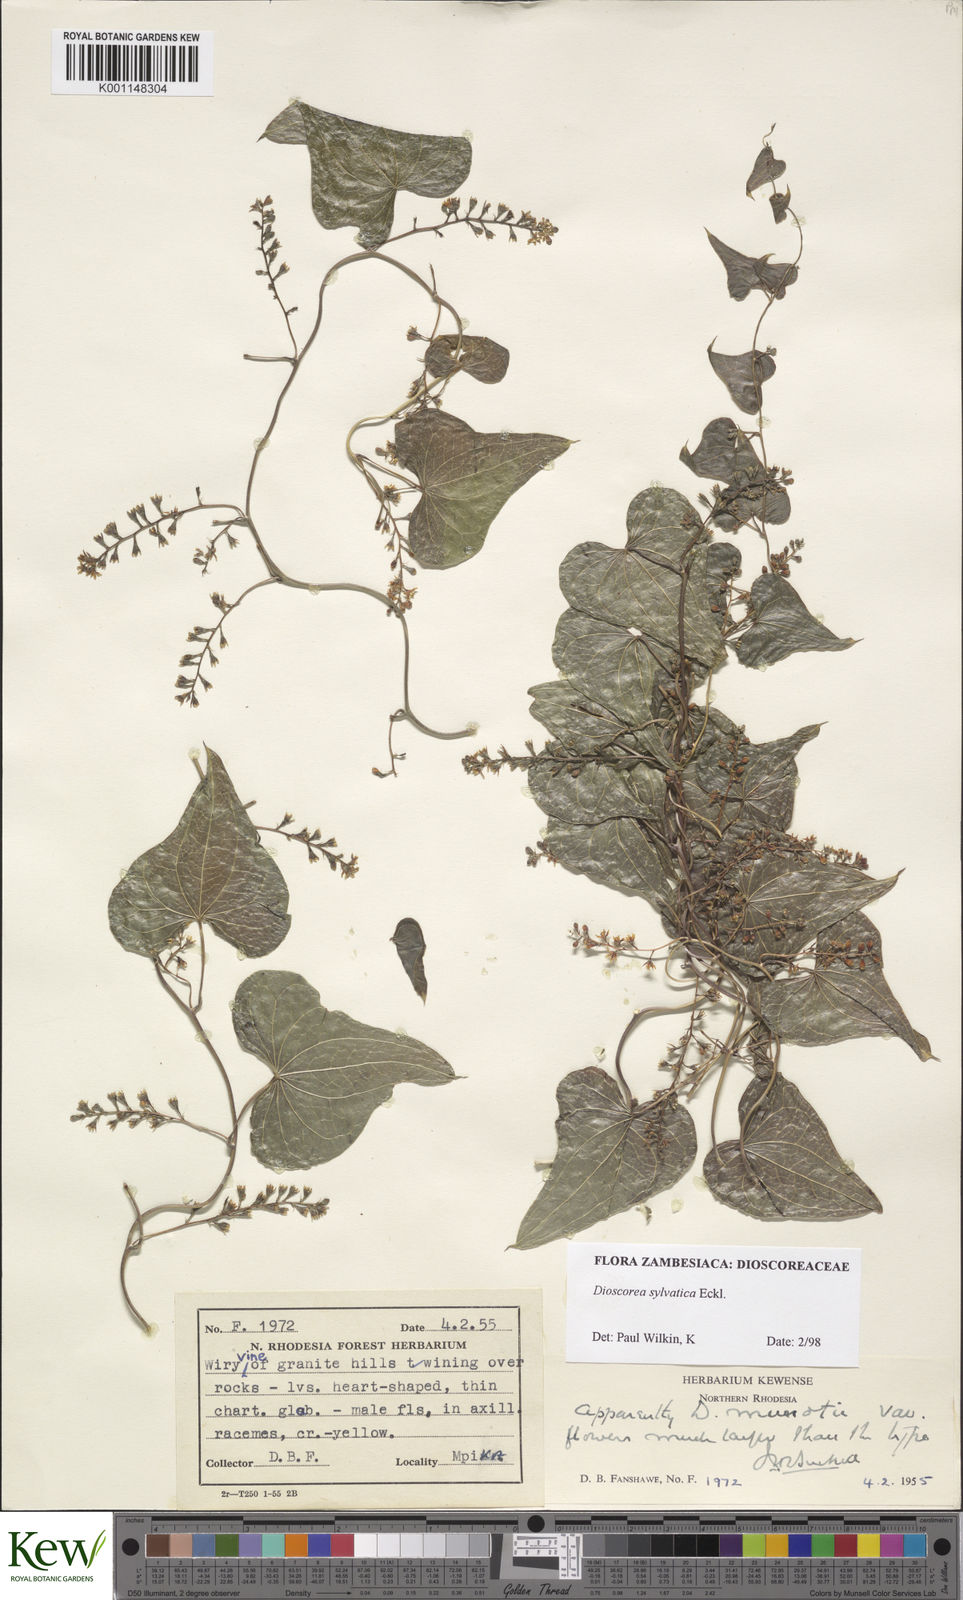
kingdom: Plantae
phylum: Tracheophyta
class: Liliopsida
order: Dioscoreales
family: Dioscoreaceae
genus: Dioscorea
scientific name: Dioscorea sylvatica
